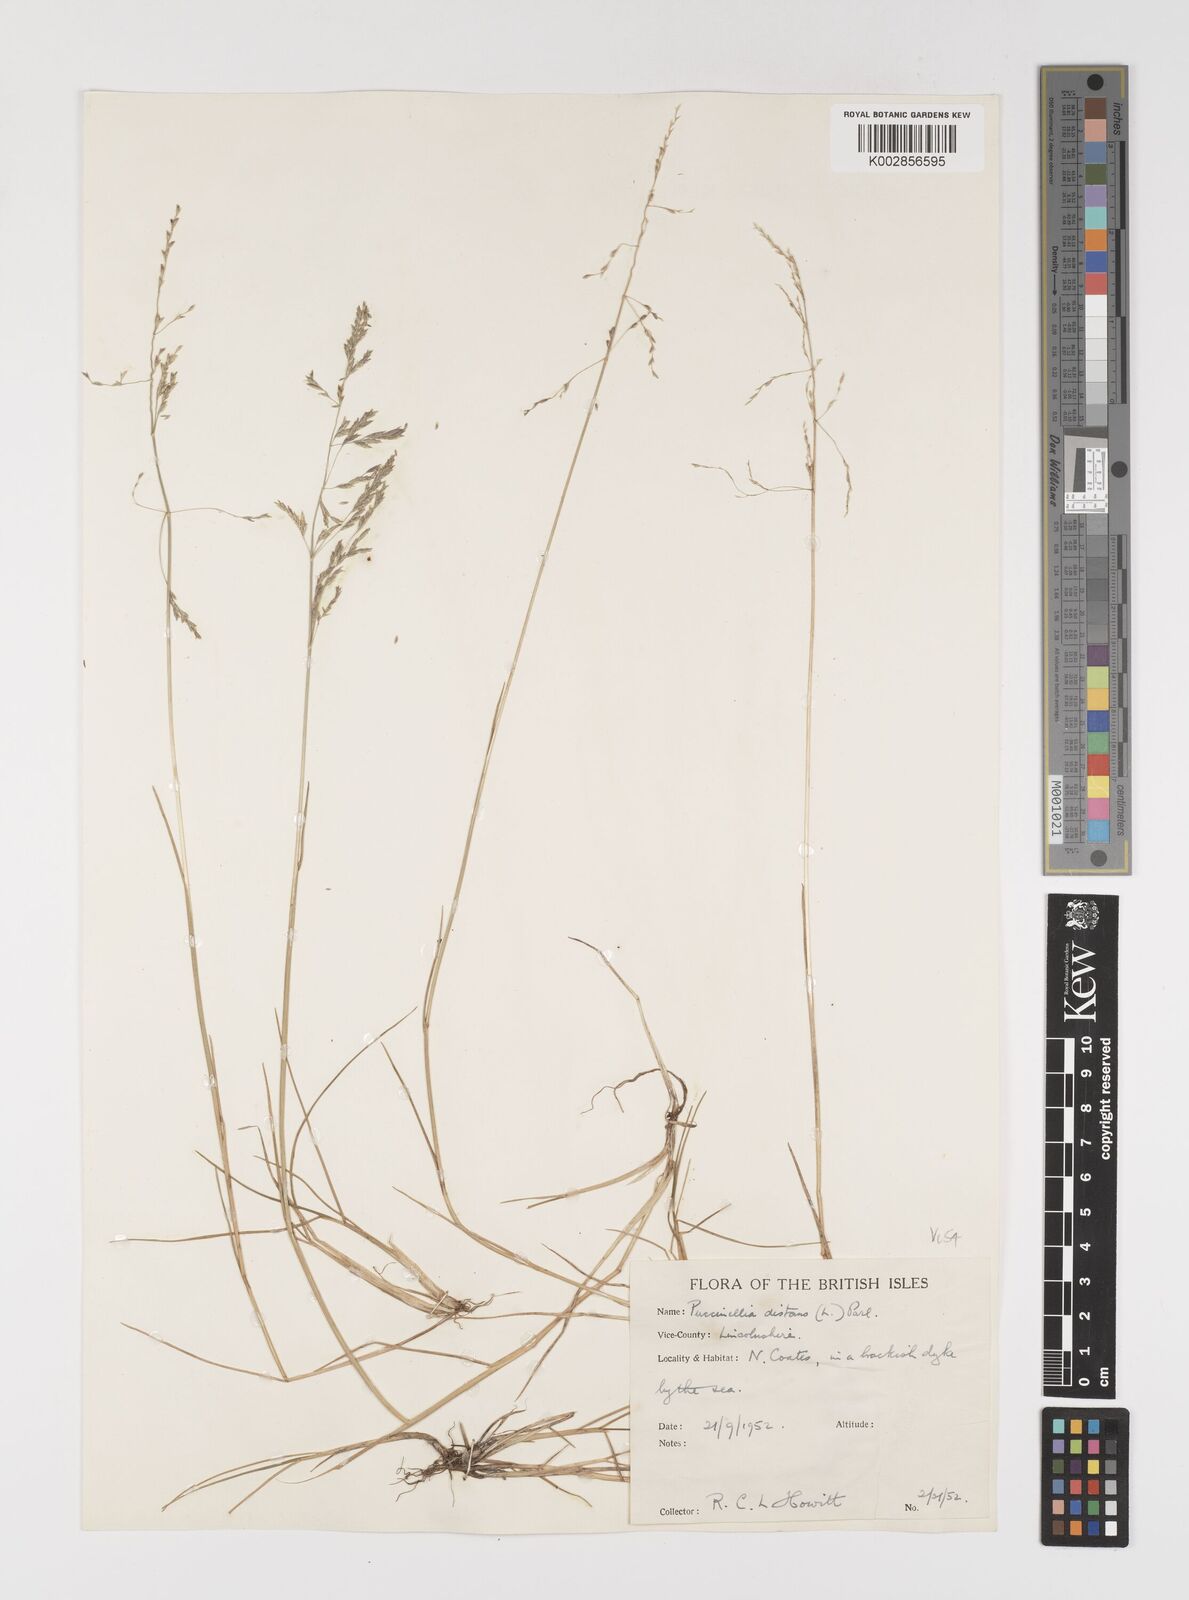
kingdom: Plantae
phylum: Tracheophyta
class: Liliopsida
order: Poales
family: Poaceae
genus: Puccinellia
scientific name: Puccinellia distans
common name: Weeping alkaligrass
